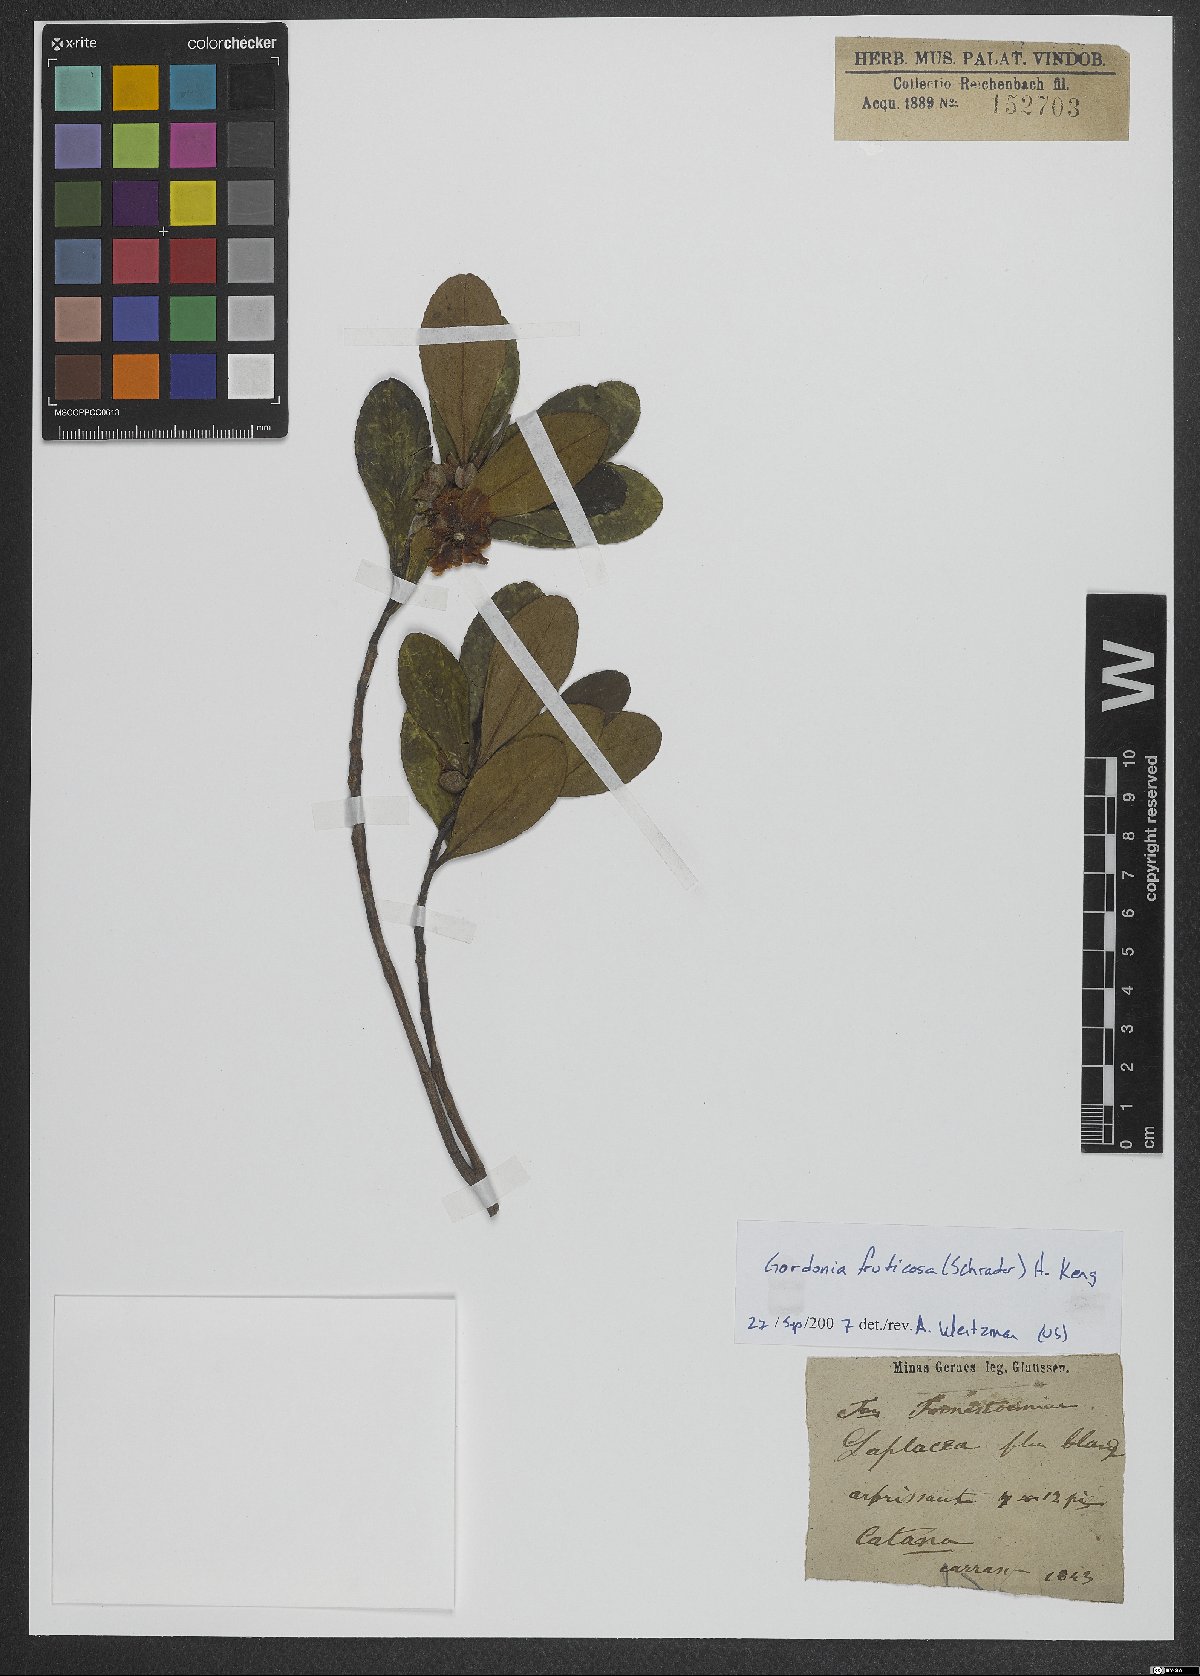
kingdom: Plantae
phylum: Tracheophyta
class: Magnoliopsida
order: Ericales
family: Theaceae
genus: Gordonia
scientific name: Gordonia fruticosa
